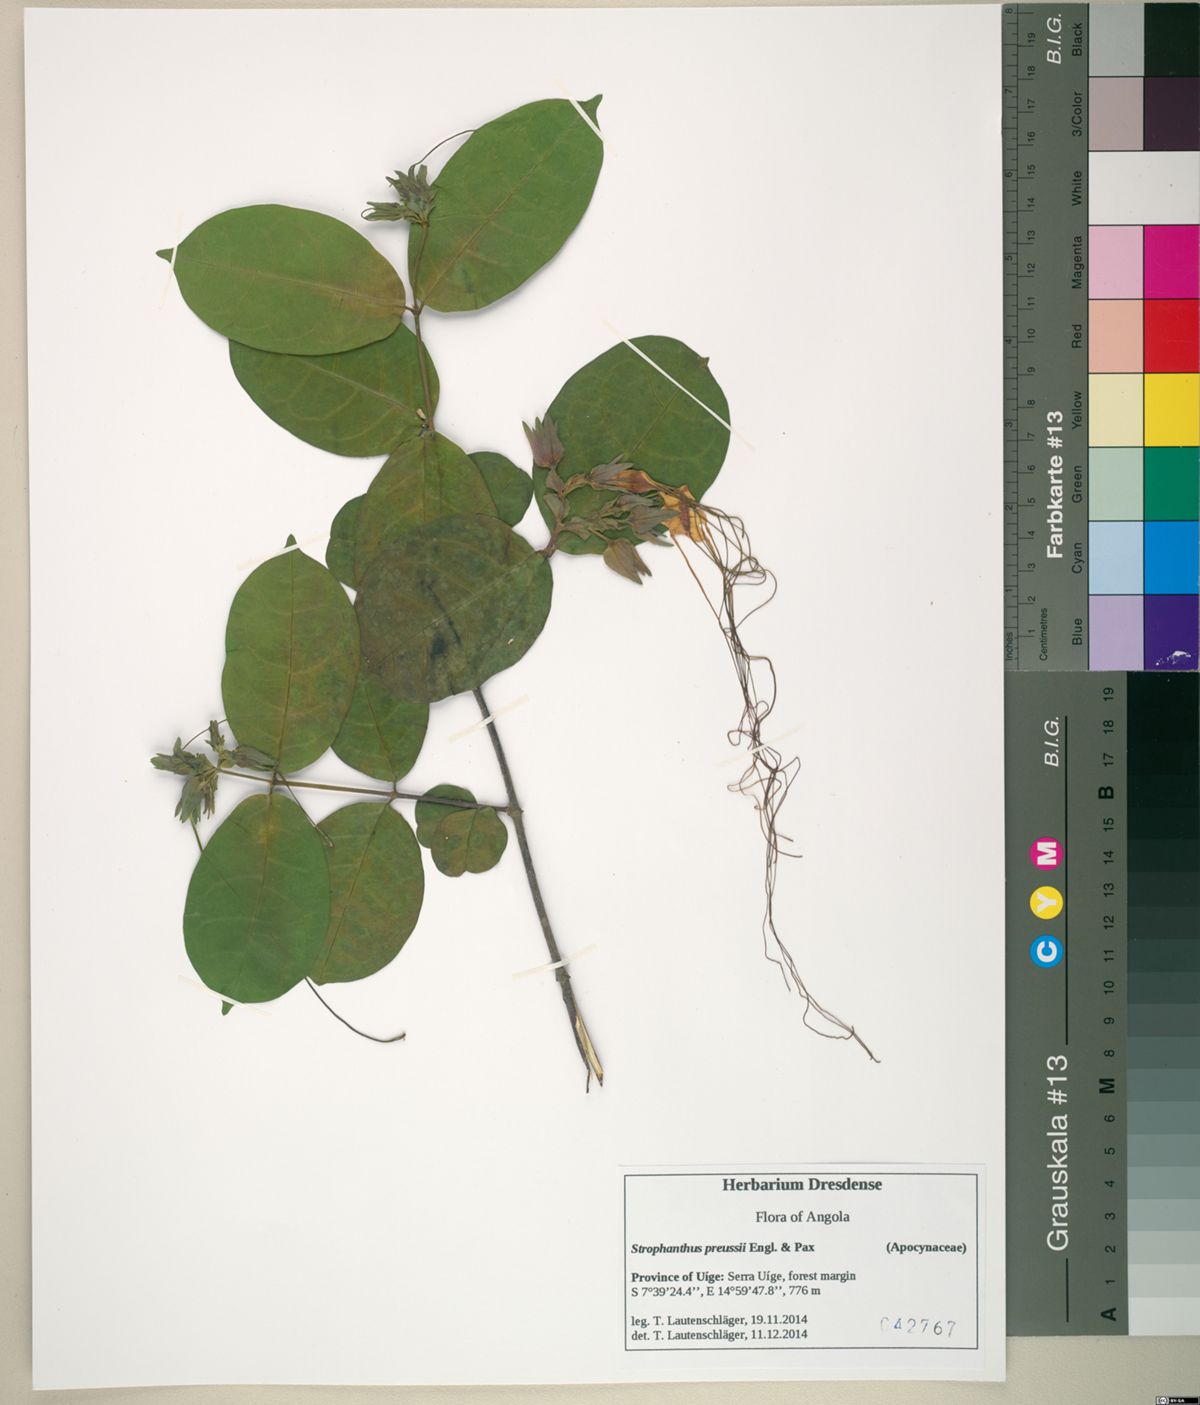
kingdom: Plantae
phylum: Tracheophyta
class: Magnoliopsida
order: Gentianales
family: Apocynaceae
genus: Strophanthus
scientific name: Strophanthus preussii
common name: Medisa-flower
